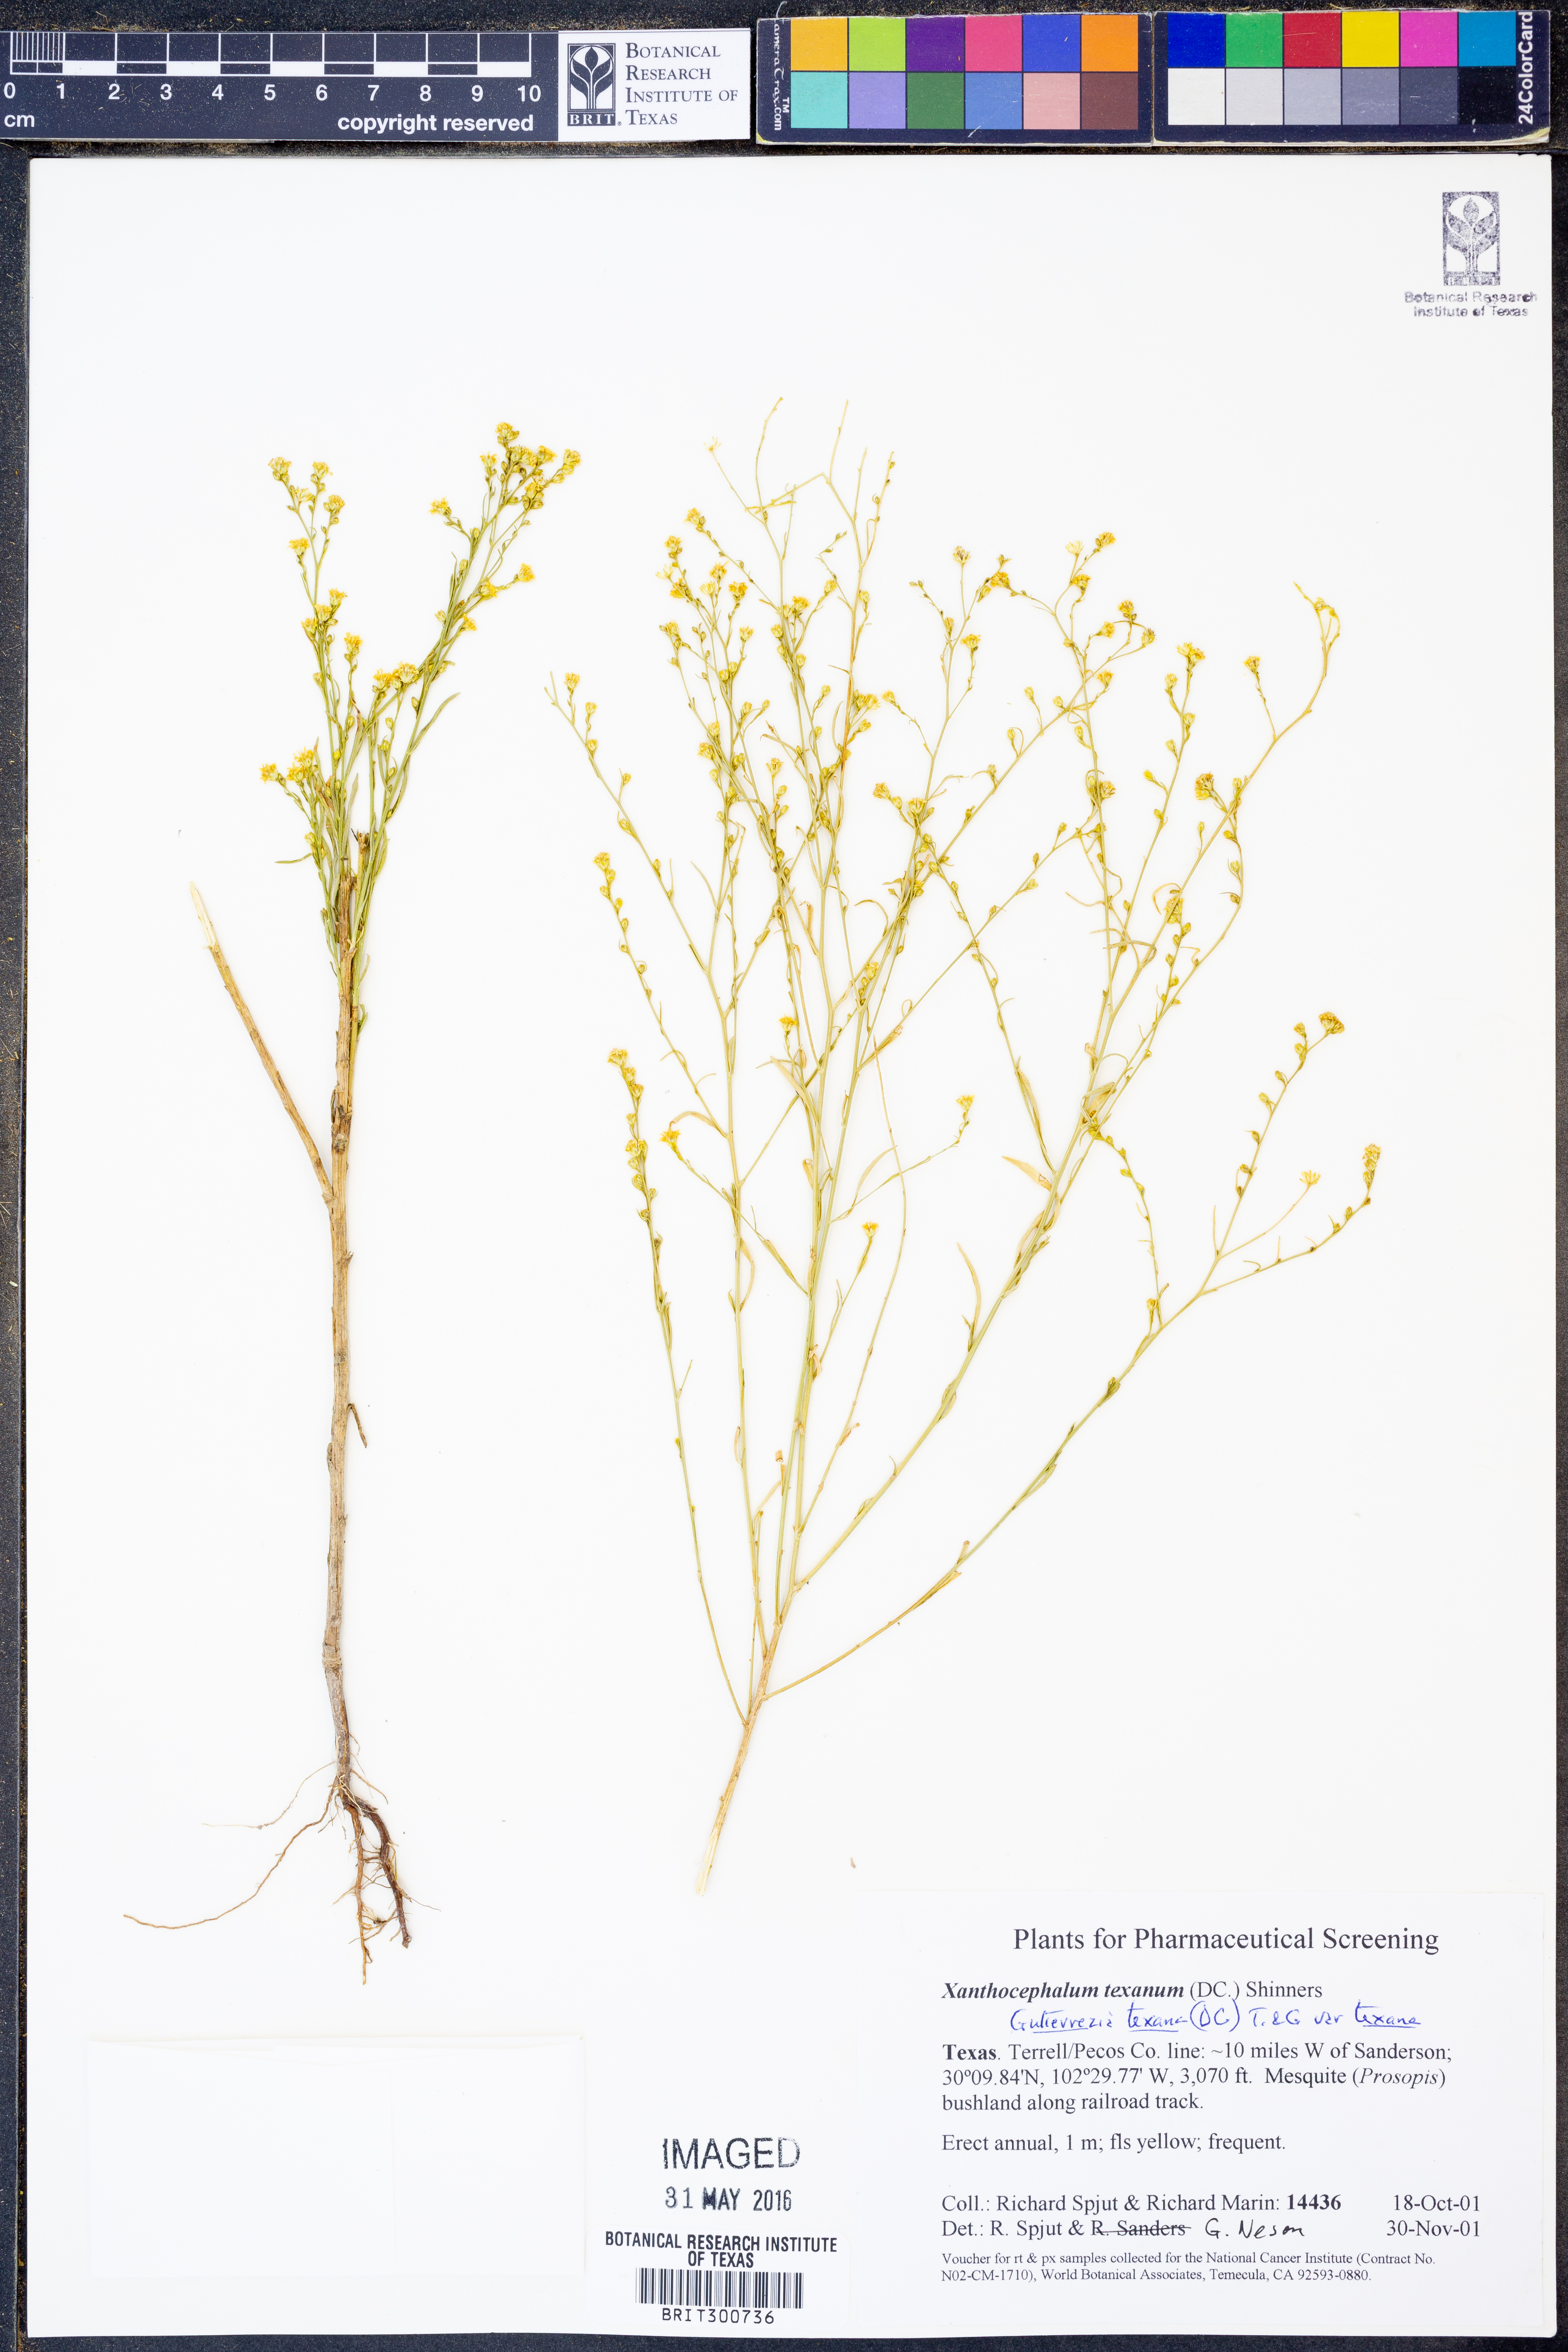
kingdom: Plantae
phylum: Tracheophyta
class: Magnoliopsida
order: Asterales
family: Asteraceae
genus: Gutierrezia
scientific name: Gutierrezia texana
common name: Texas snakeweed
